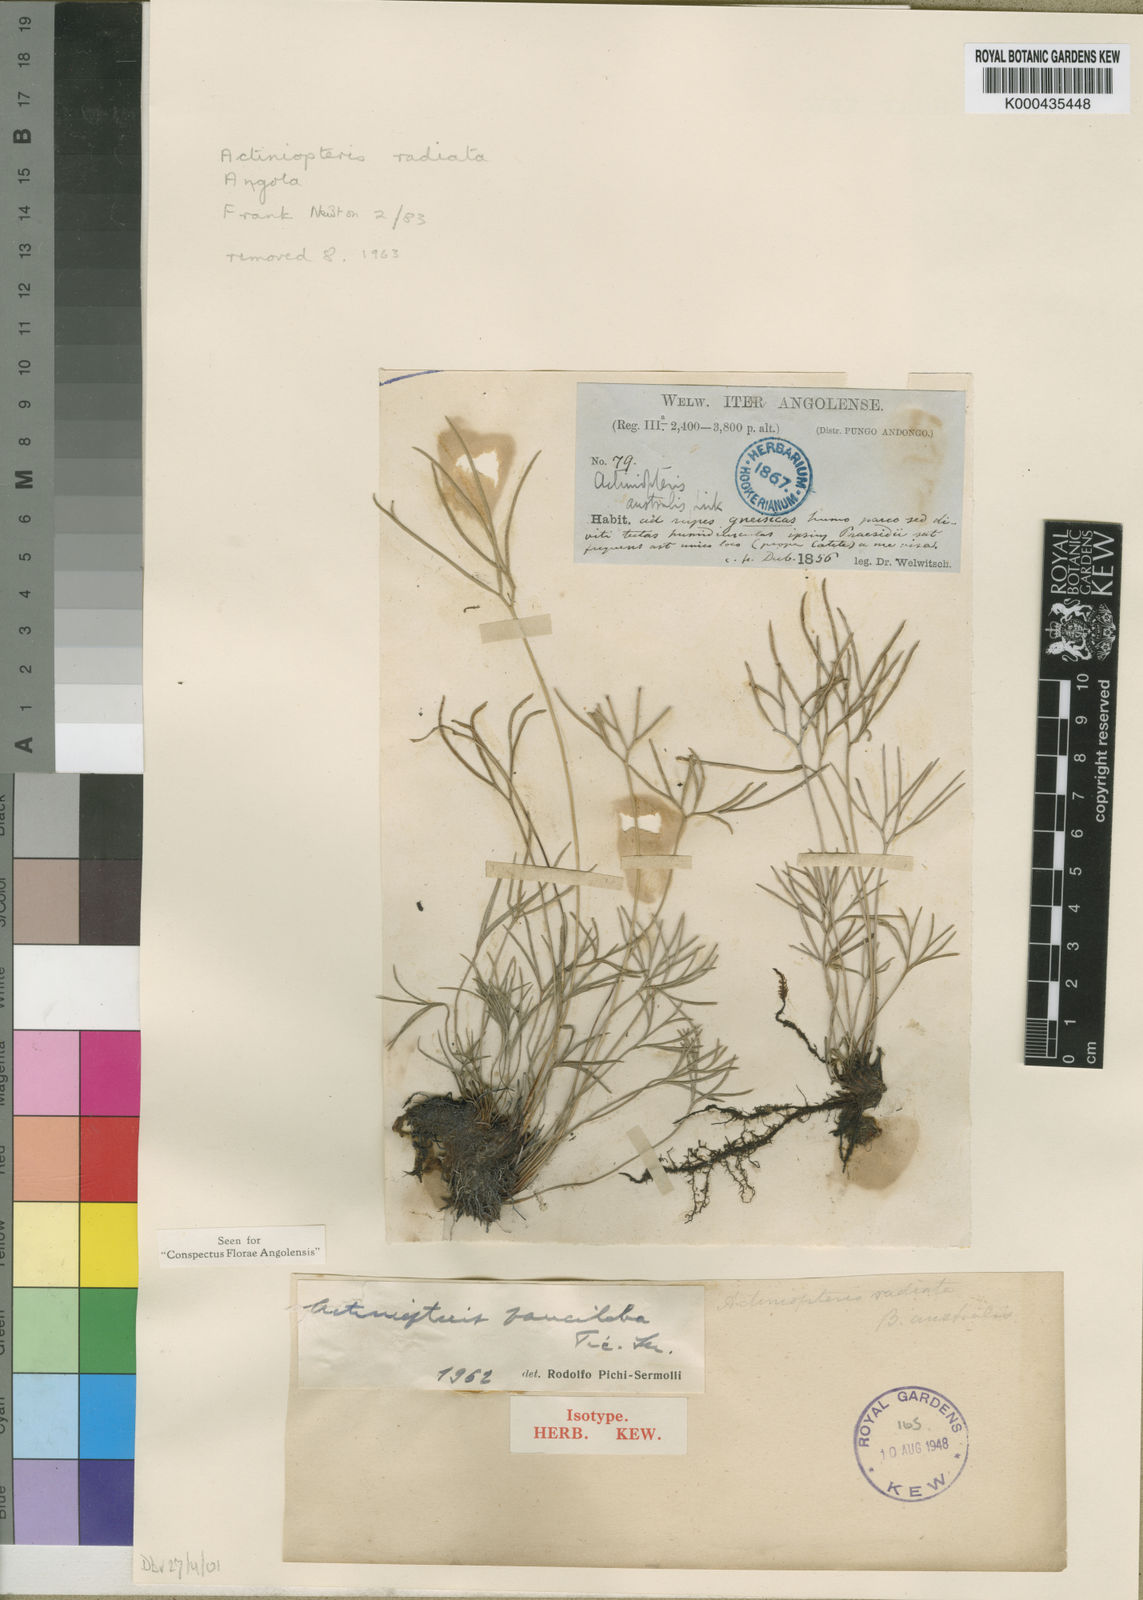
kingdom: Plantae
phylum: Tracheophyta
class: Polypodiopsida
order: Polypodiales
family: Pteridaceae
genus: Actiniopteris
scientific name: Actiniopteris pauciloba
